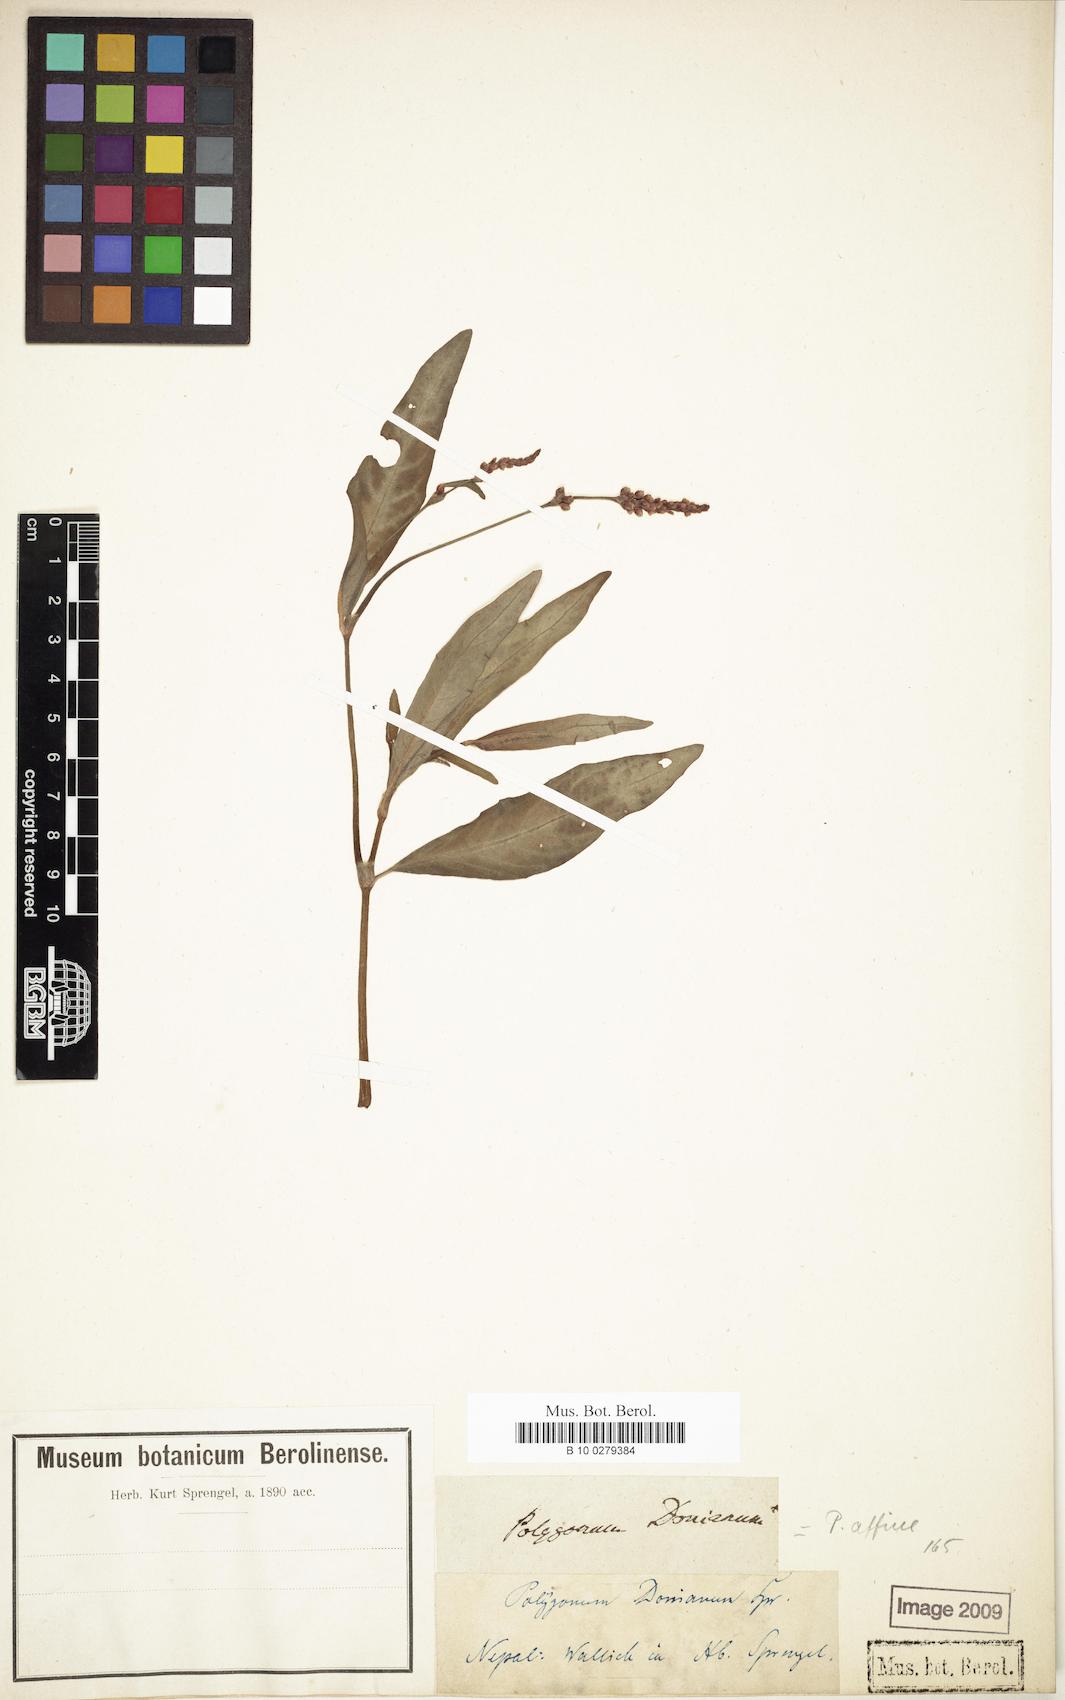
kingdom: Plantae
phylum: Tracheophyta
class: Magnoliopsida
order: Caryophyllales
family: Polygonaceae
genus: Bistorta
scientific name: Bistorta affinis
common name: Himalayan fleeceflower
